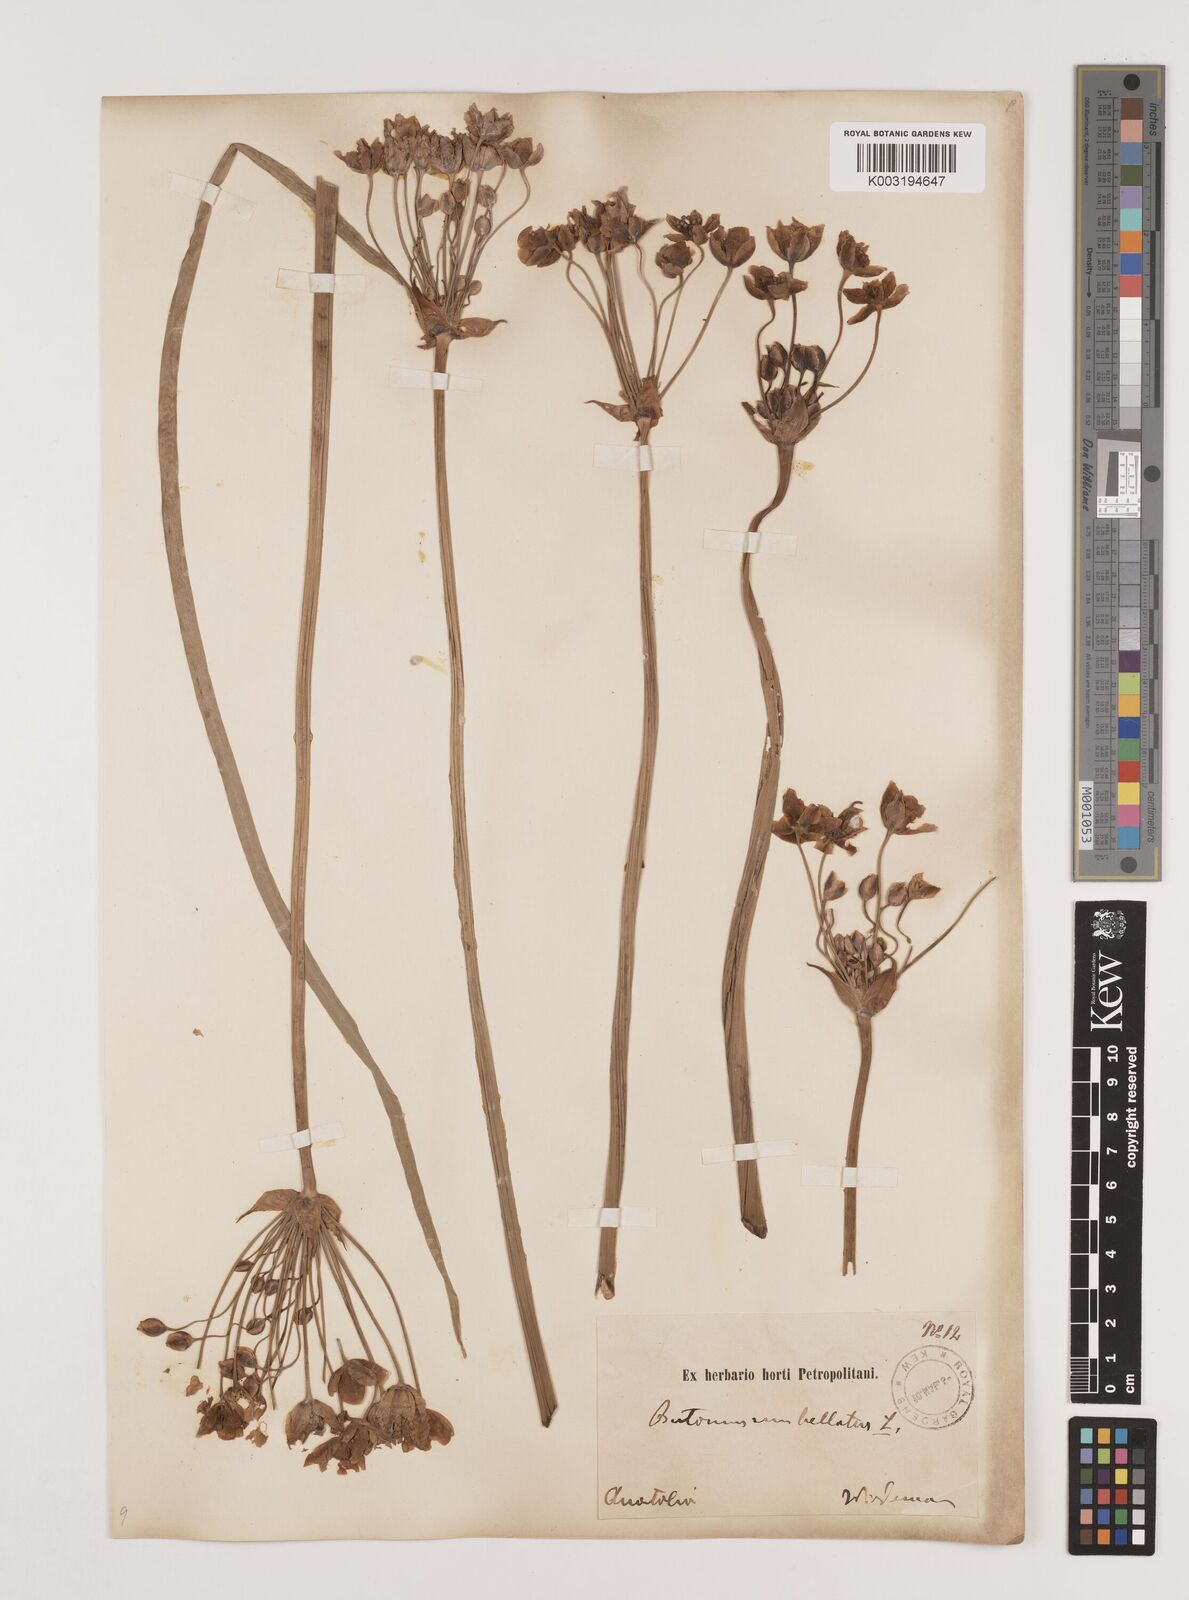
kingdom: Plantae
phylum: Tracheophyta
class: Liliopsida
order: Alismatales
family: Butomaceae
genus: Butomus
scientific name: Butomus
